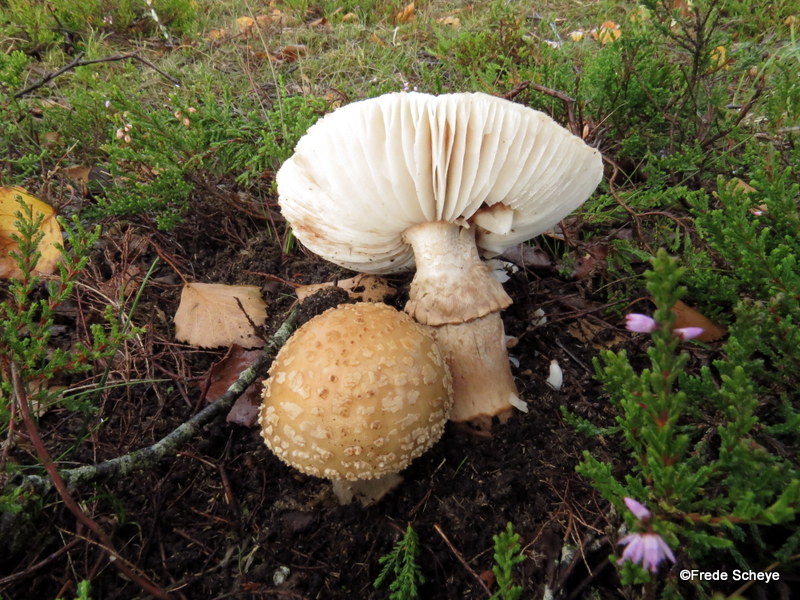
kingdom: Fungi
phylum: Basidiomycota
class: Agaricomycetes
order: Agaricales
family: Amanitaceae
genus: Amanita
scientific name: Amanita rubescens
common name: rødmende fluesvamp
